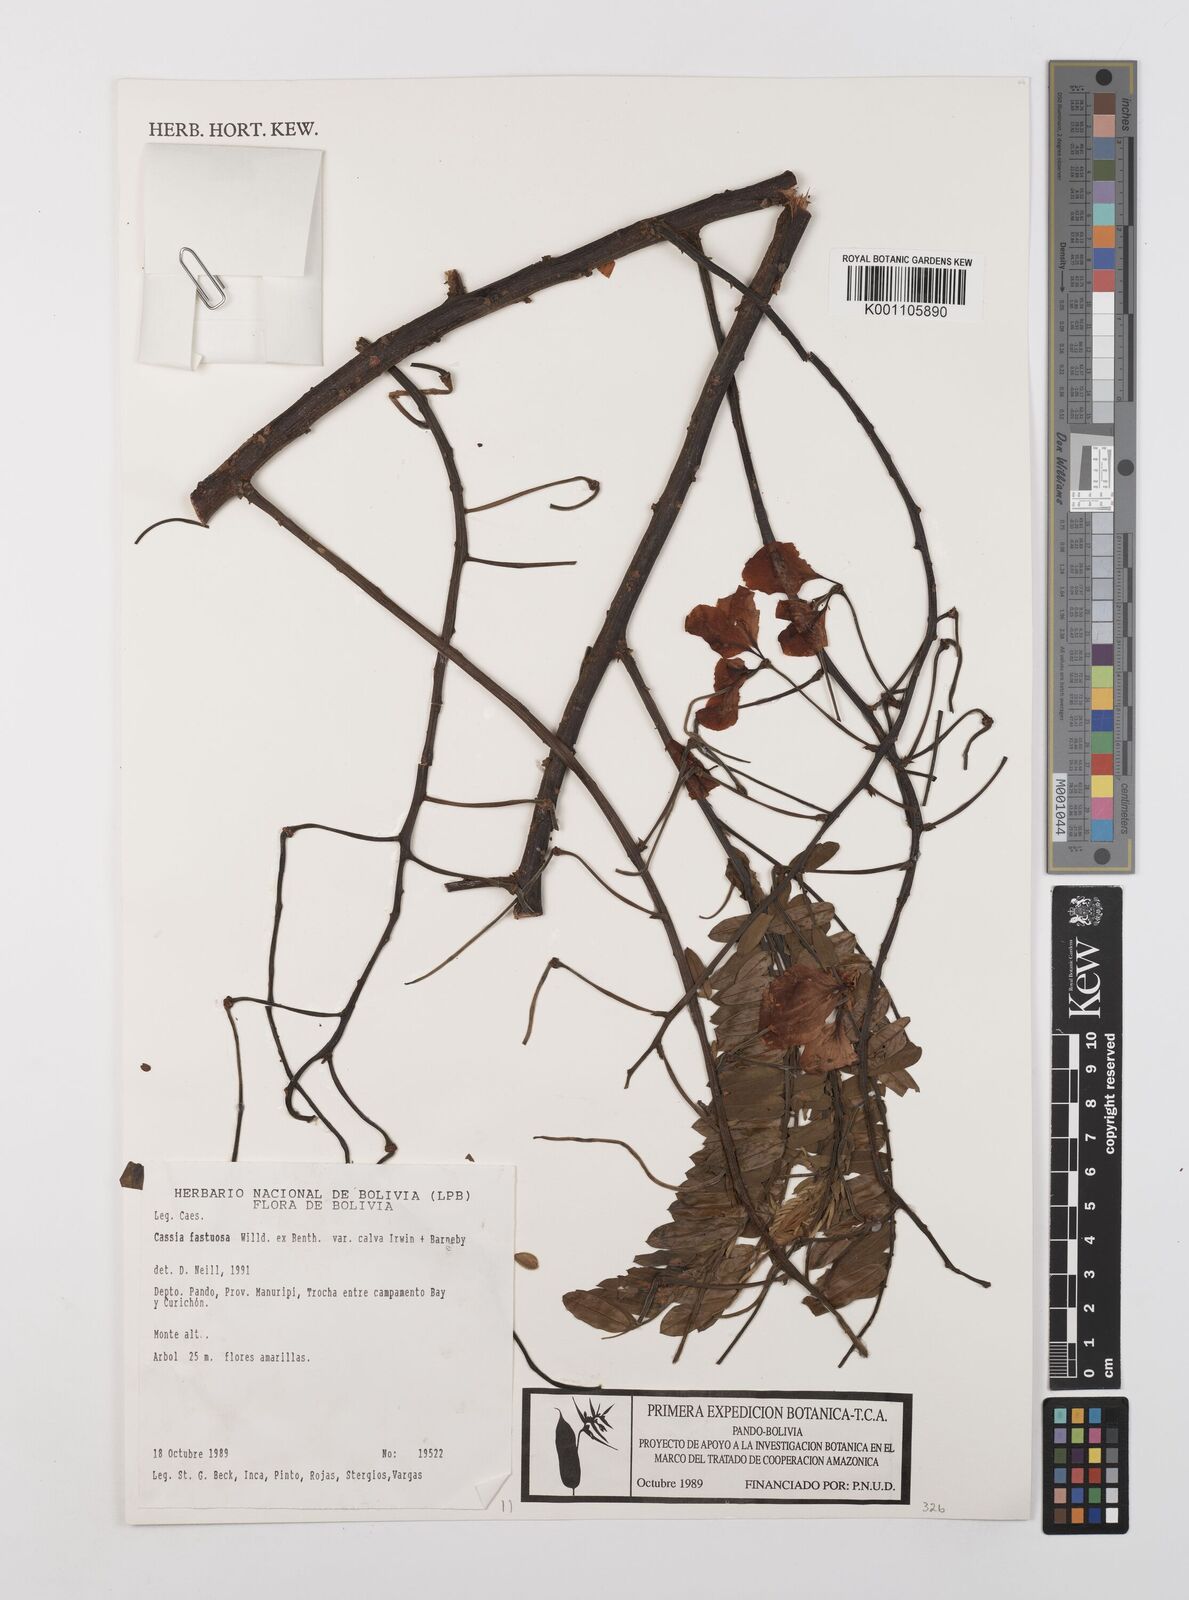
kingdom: Plantae
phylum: Tracheophyta
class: Magnoliopsida
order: Fabales
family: Fabaceae
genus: Cassia
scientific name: Cassia fastuosa
